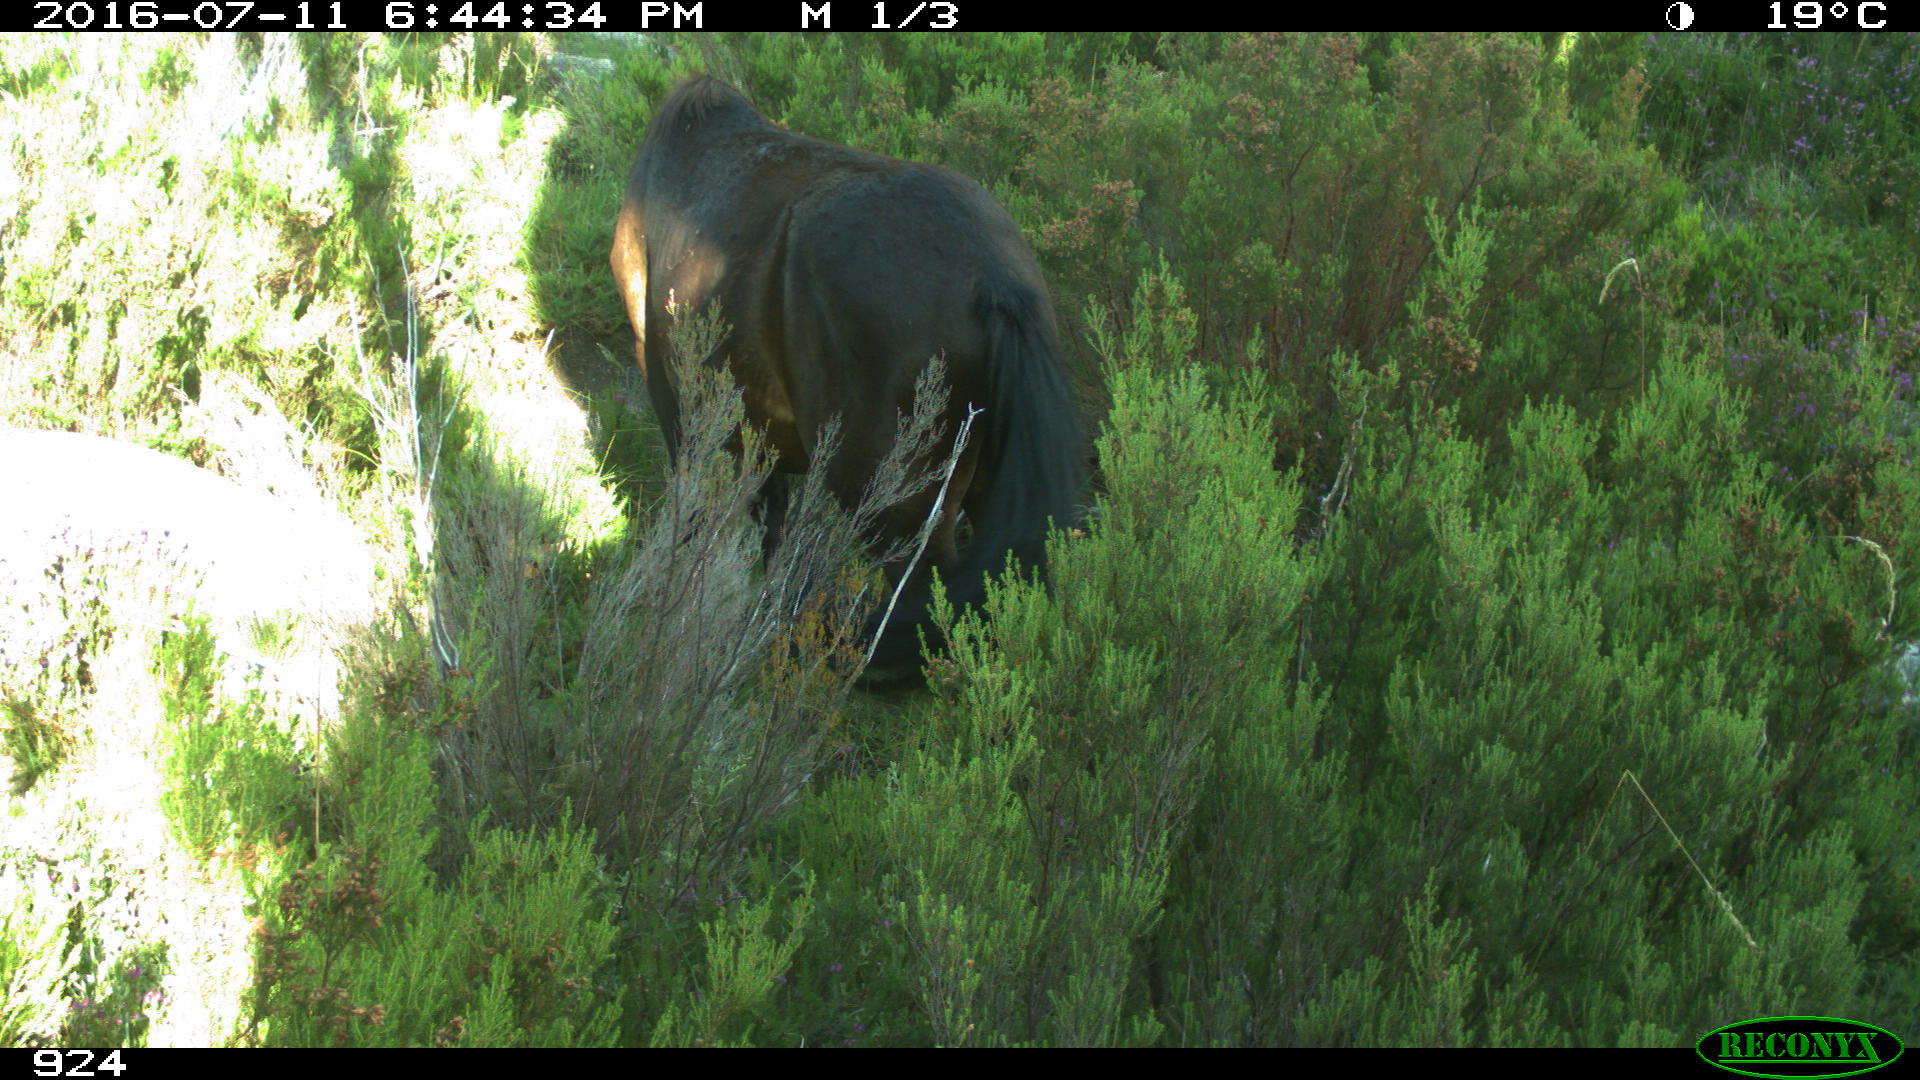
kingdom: Animalia
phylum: Chordata
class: Mammalia
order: Perissodactyla
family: Equidae
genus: Equus
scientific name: Equus caballus
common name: Horse
